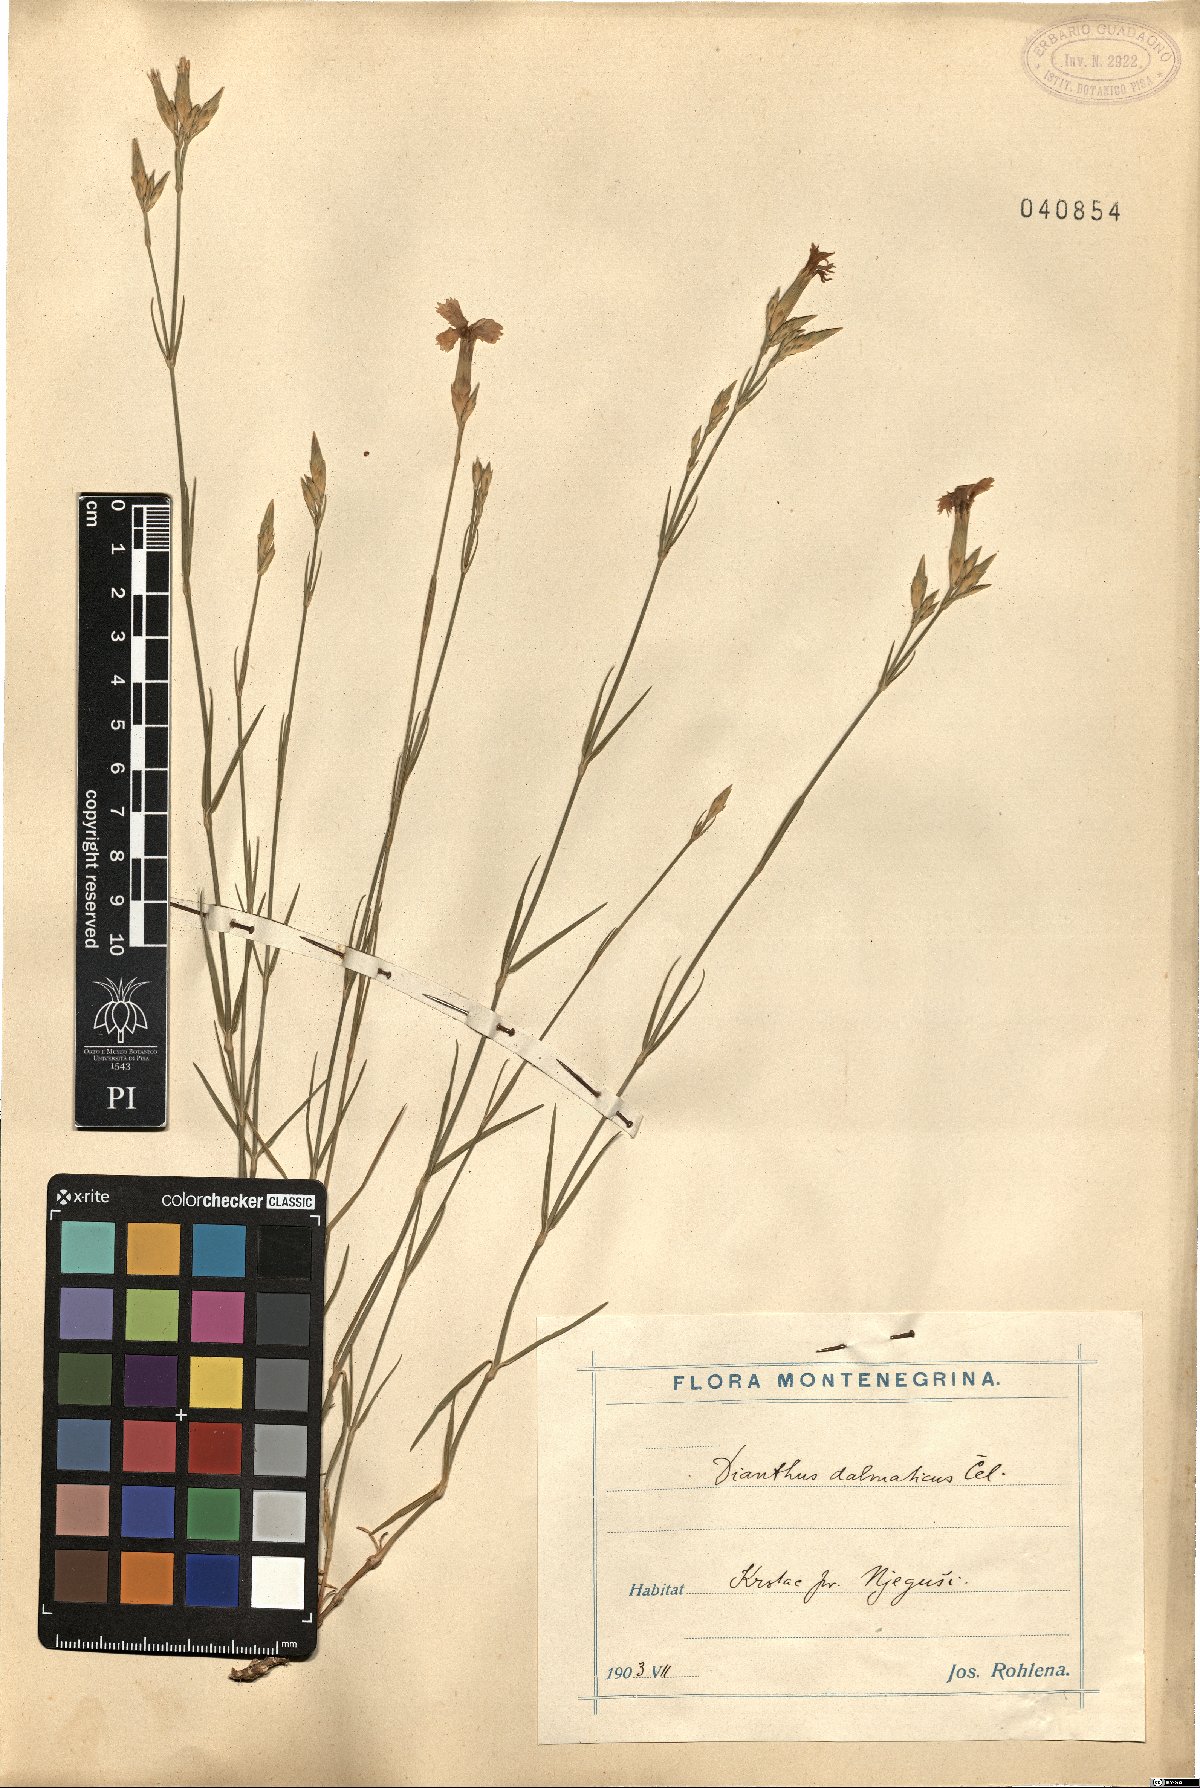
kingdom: Plantae
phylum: Tracheophyta
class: Magnoliopsida
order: Caryophyllales
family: Caryophyllaceae
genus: Dianthus
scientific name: Dianthus ciliatus
